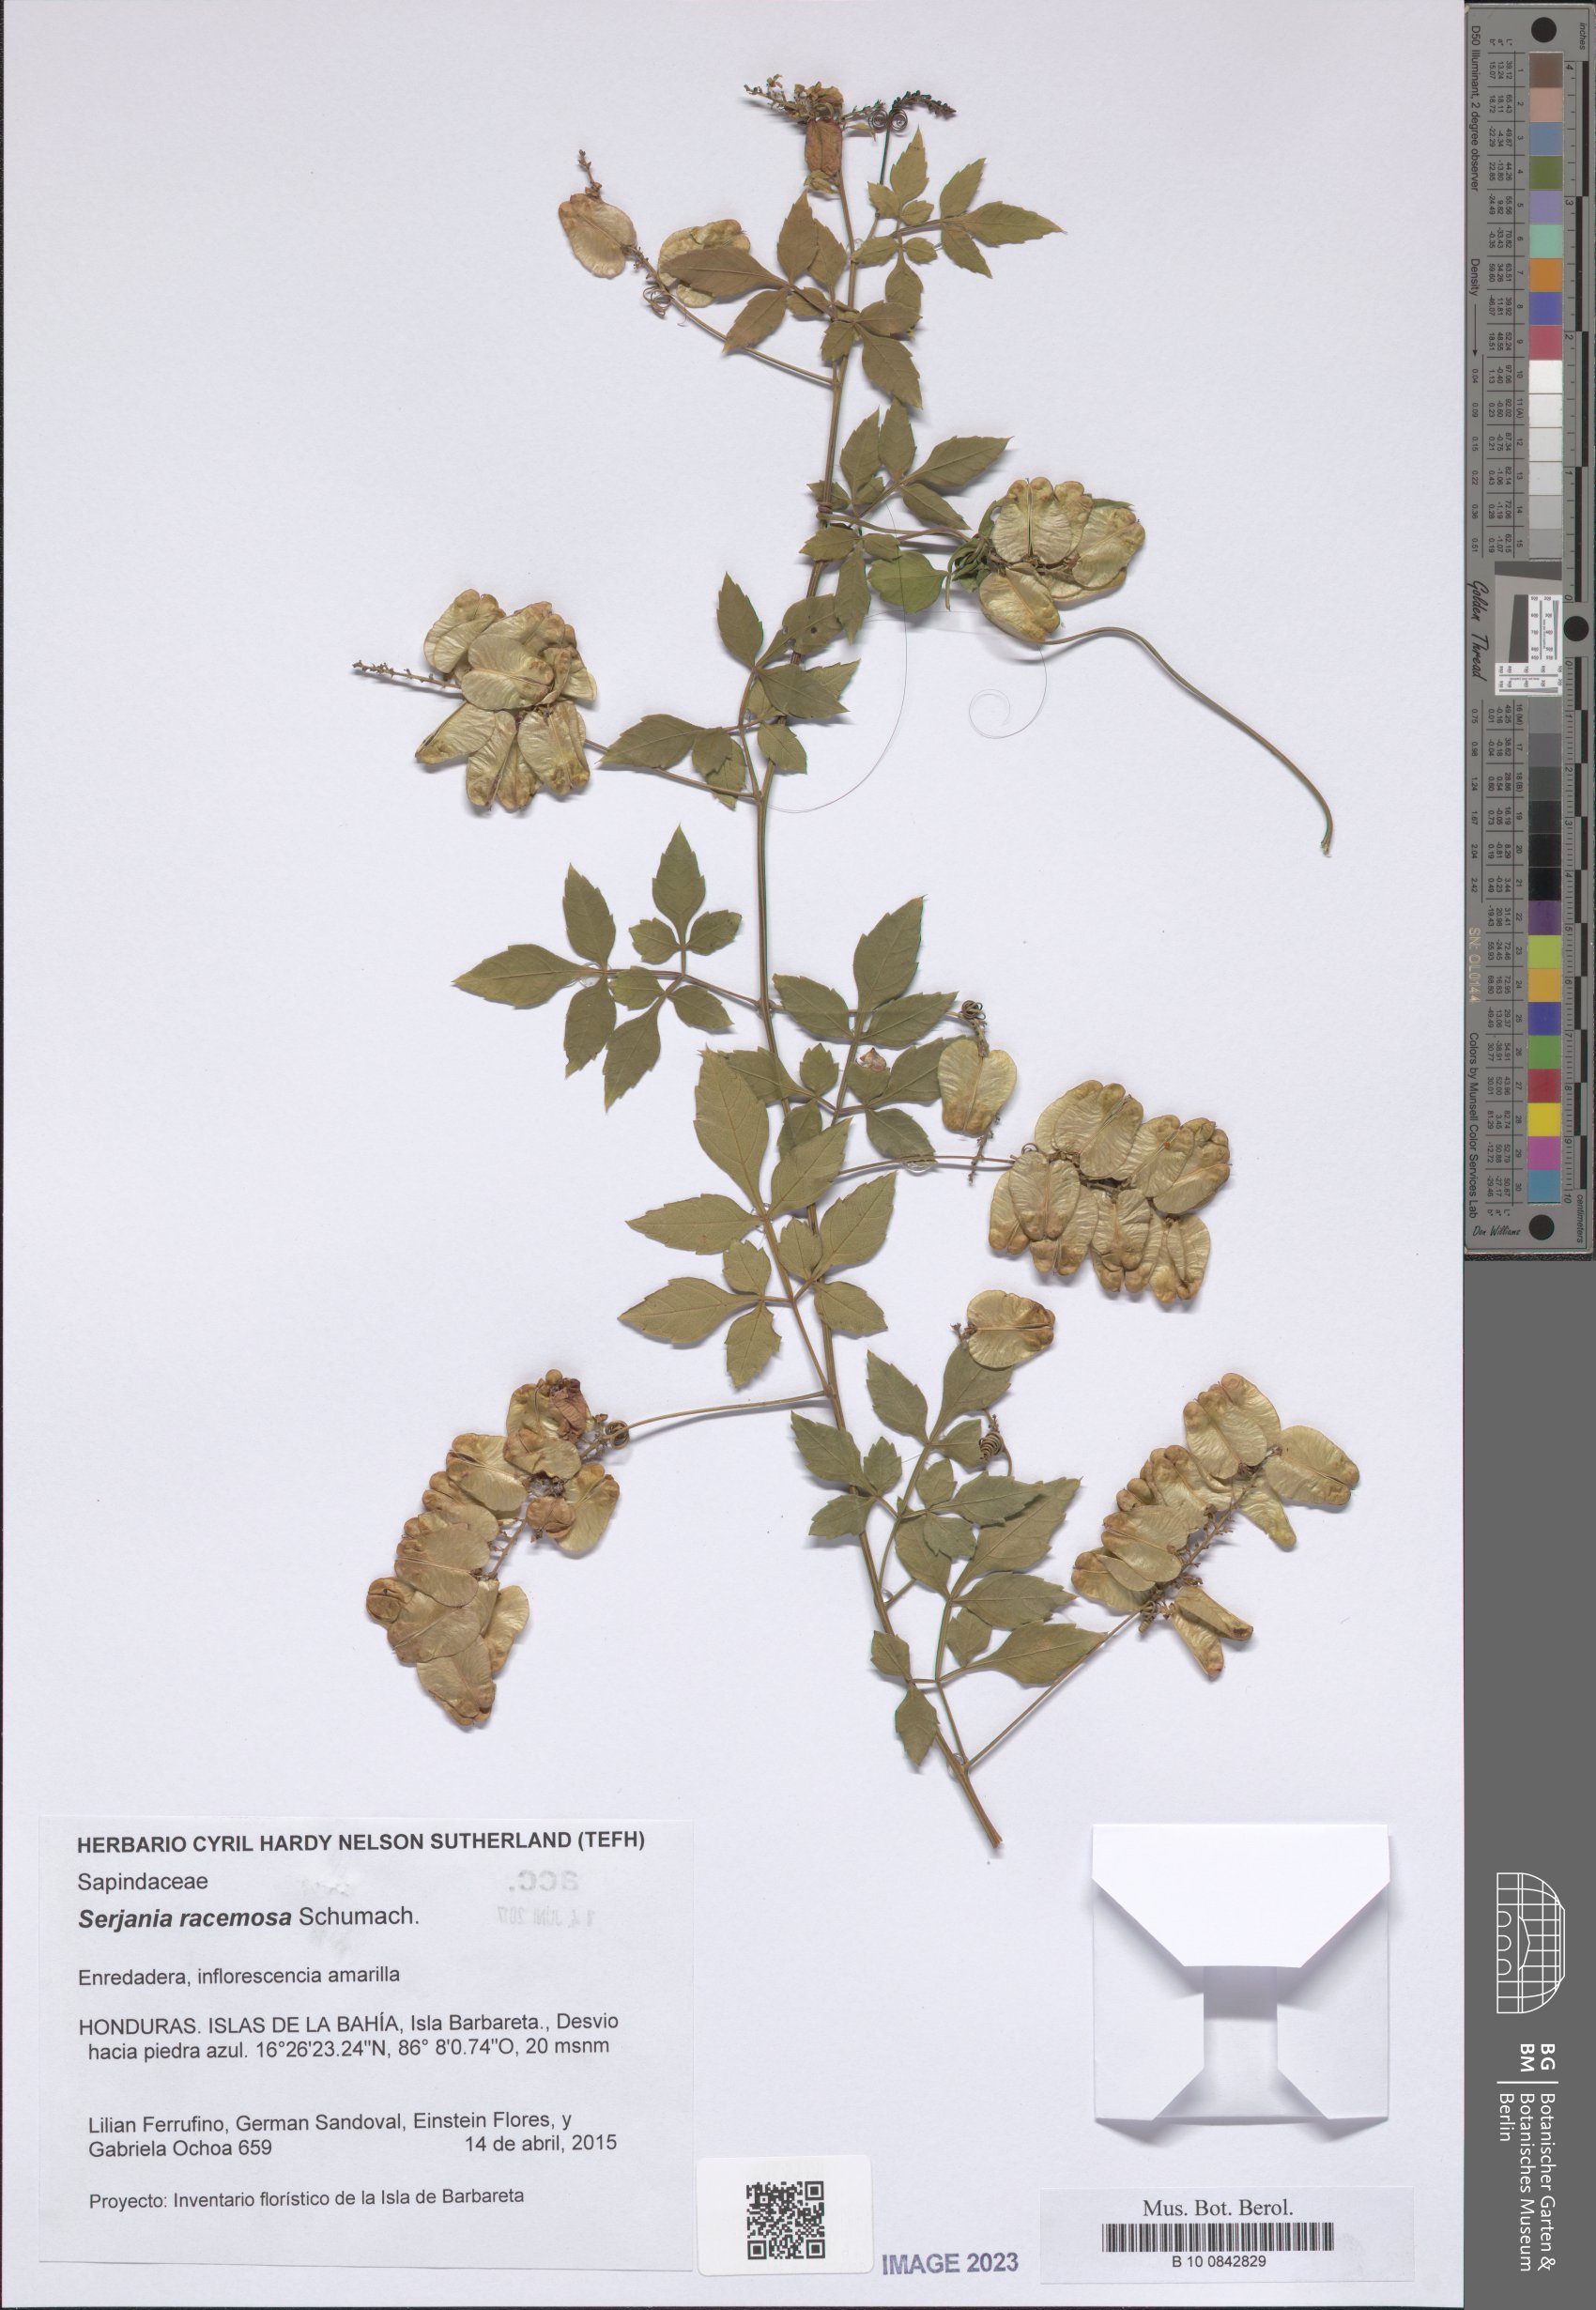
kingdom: Plantae
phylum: Tracheophyta
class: Magnoliopsida
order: Sapindales
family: Sapindaceae
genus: Serjania
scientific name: Serjania racemosa
